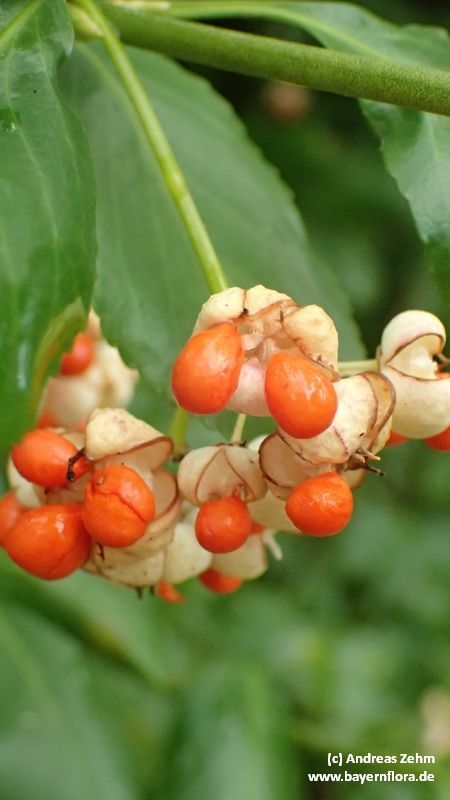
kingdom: Plantae
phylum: Tracheophyta
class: Magnoliopsida
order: Celastrales
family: Celastraceae
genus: Euonymus
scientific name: Euonymus fortunei
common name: Climbing euonymus
